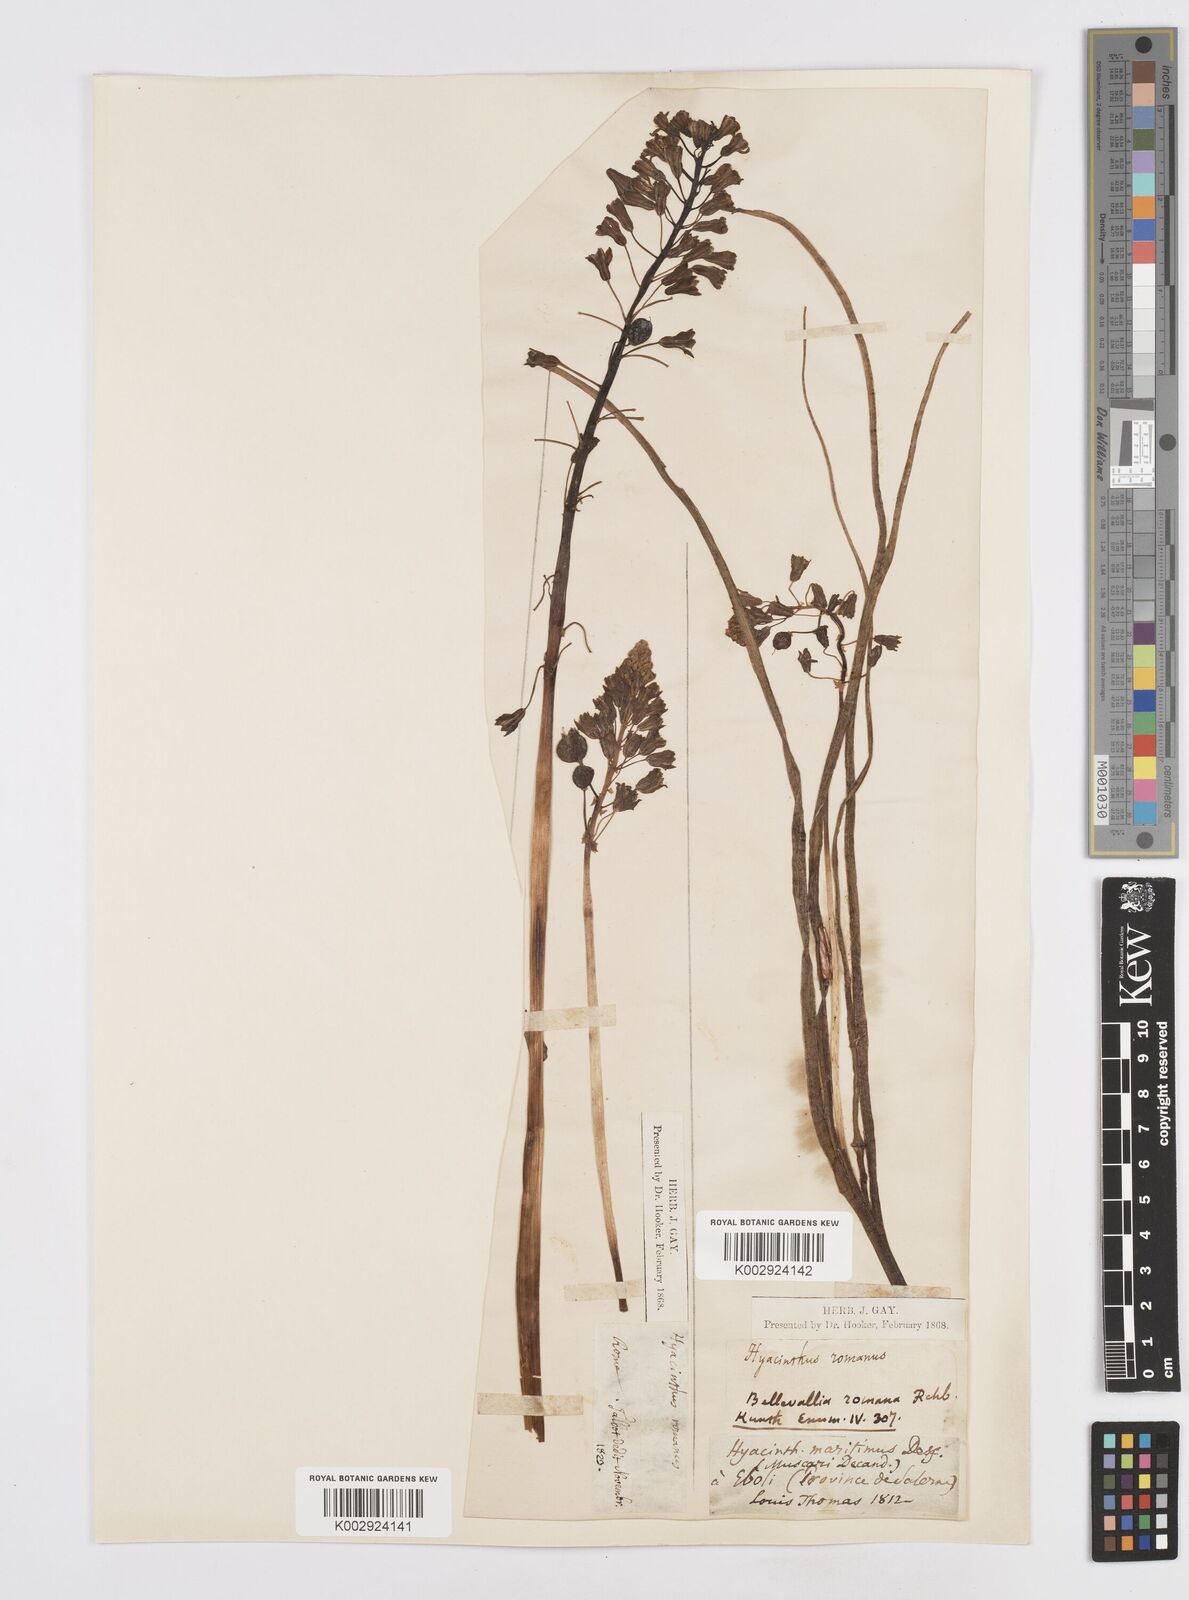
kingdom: Plantae
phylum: Tracheophyta
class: Liliopsida
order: Asparagales
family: Asparagaceae
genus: Bellevalia
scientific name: Bellevalia
